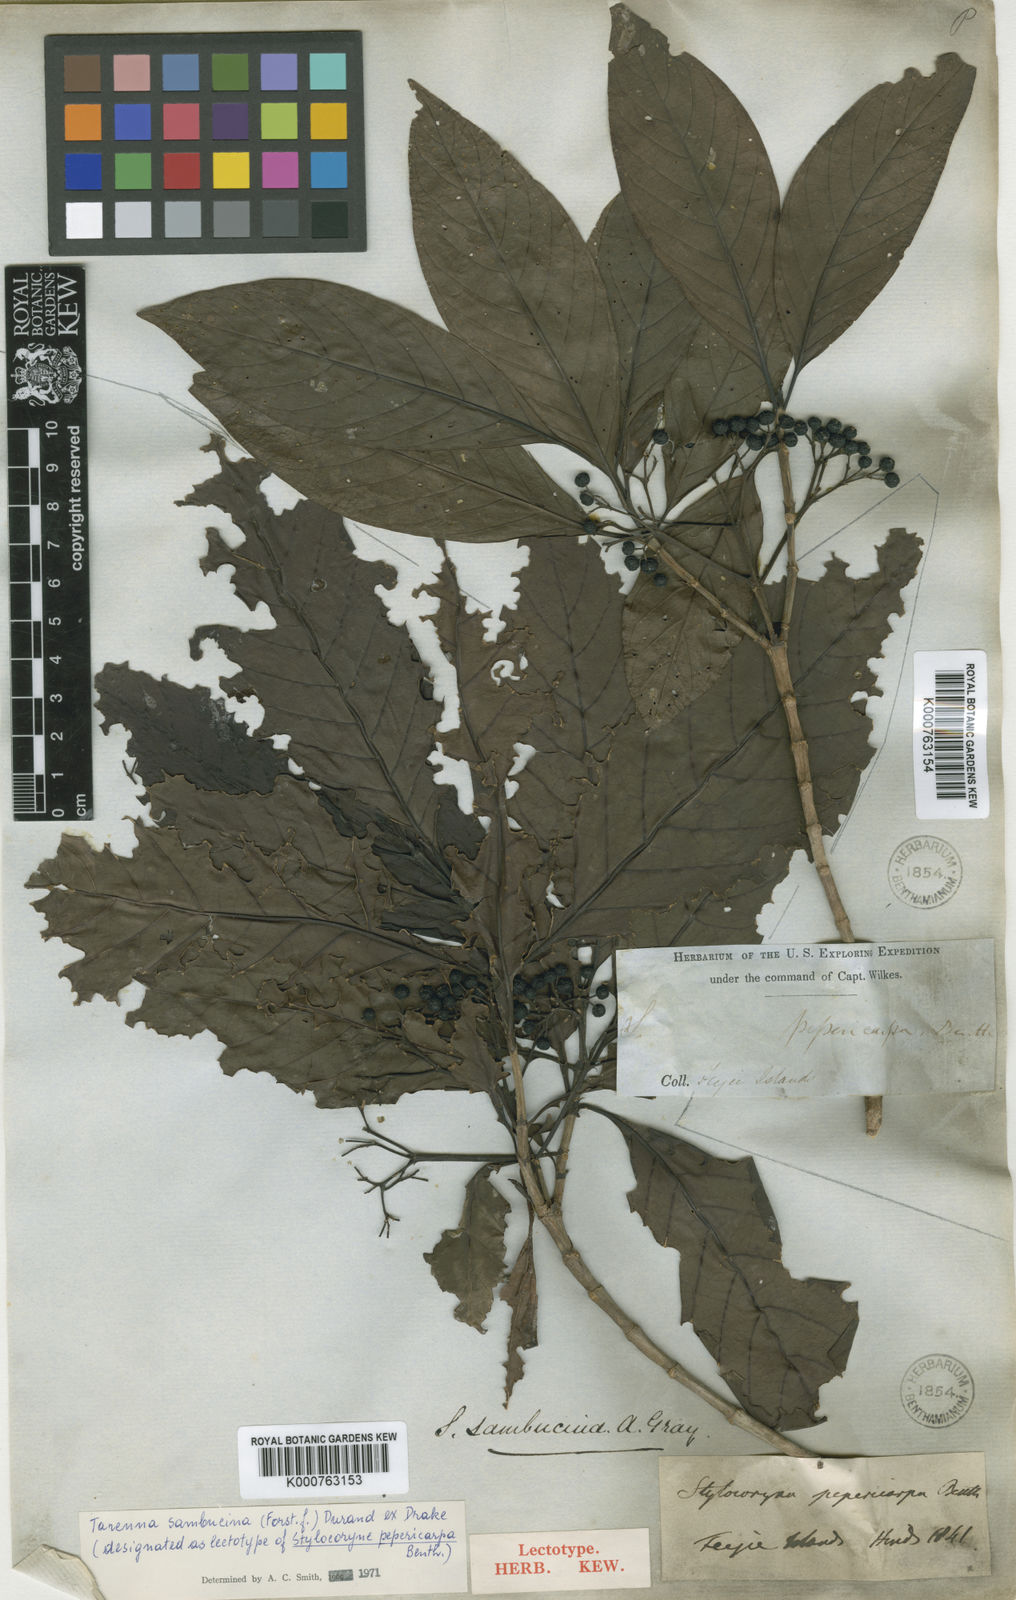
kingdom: Plantae
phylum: Tracheophyta
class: Magnoliopsida
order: Gentianales
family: Rubiaceae
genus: Tarenna
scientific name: Tarenna sambucina
